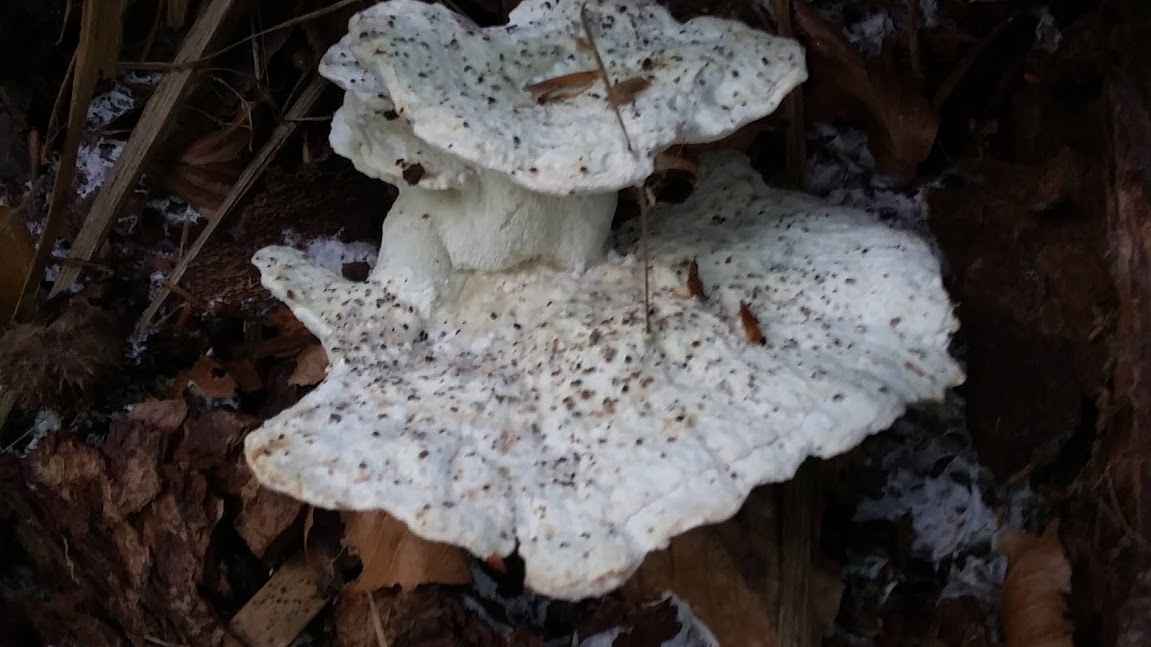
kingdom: Fungi
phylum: Basidiomycota
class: Agaricomycetes
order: Polyporales
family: Dacryobolaceae
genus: Postia
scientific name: Postia
